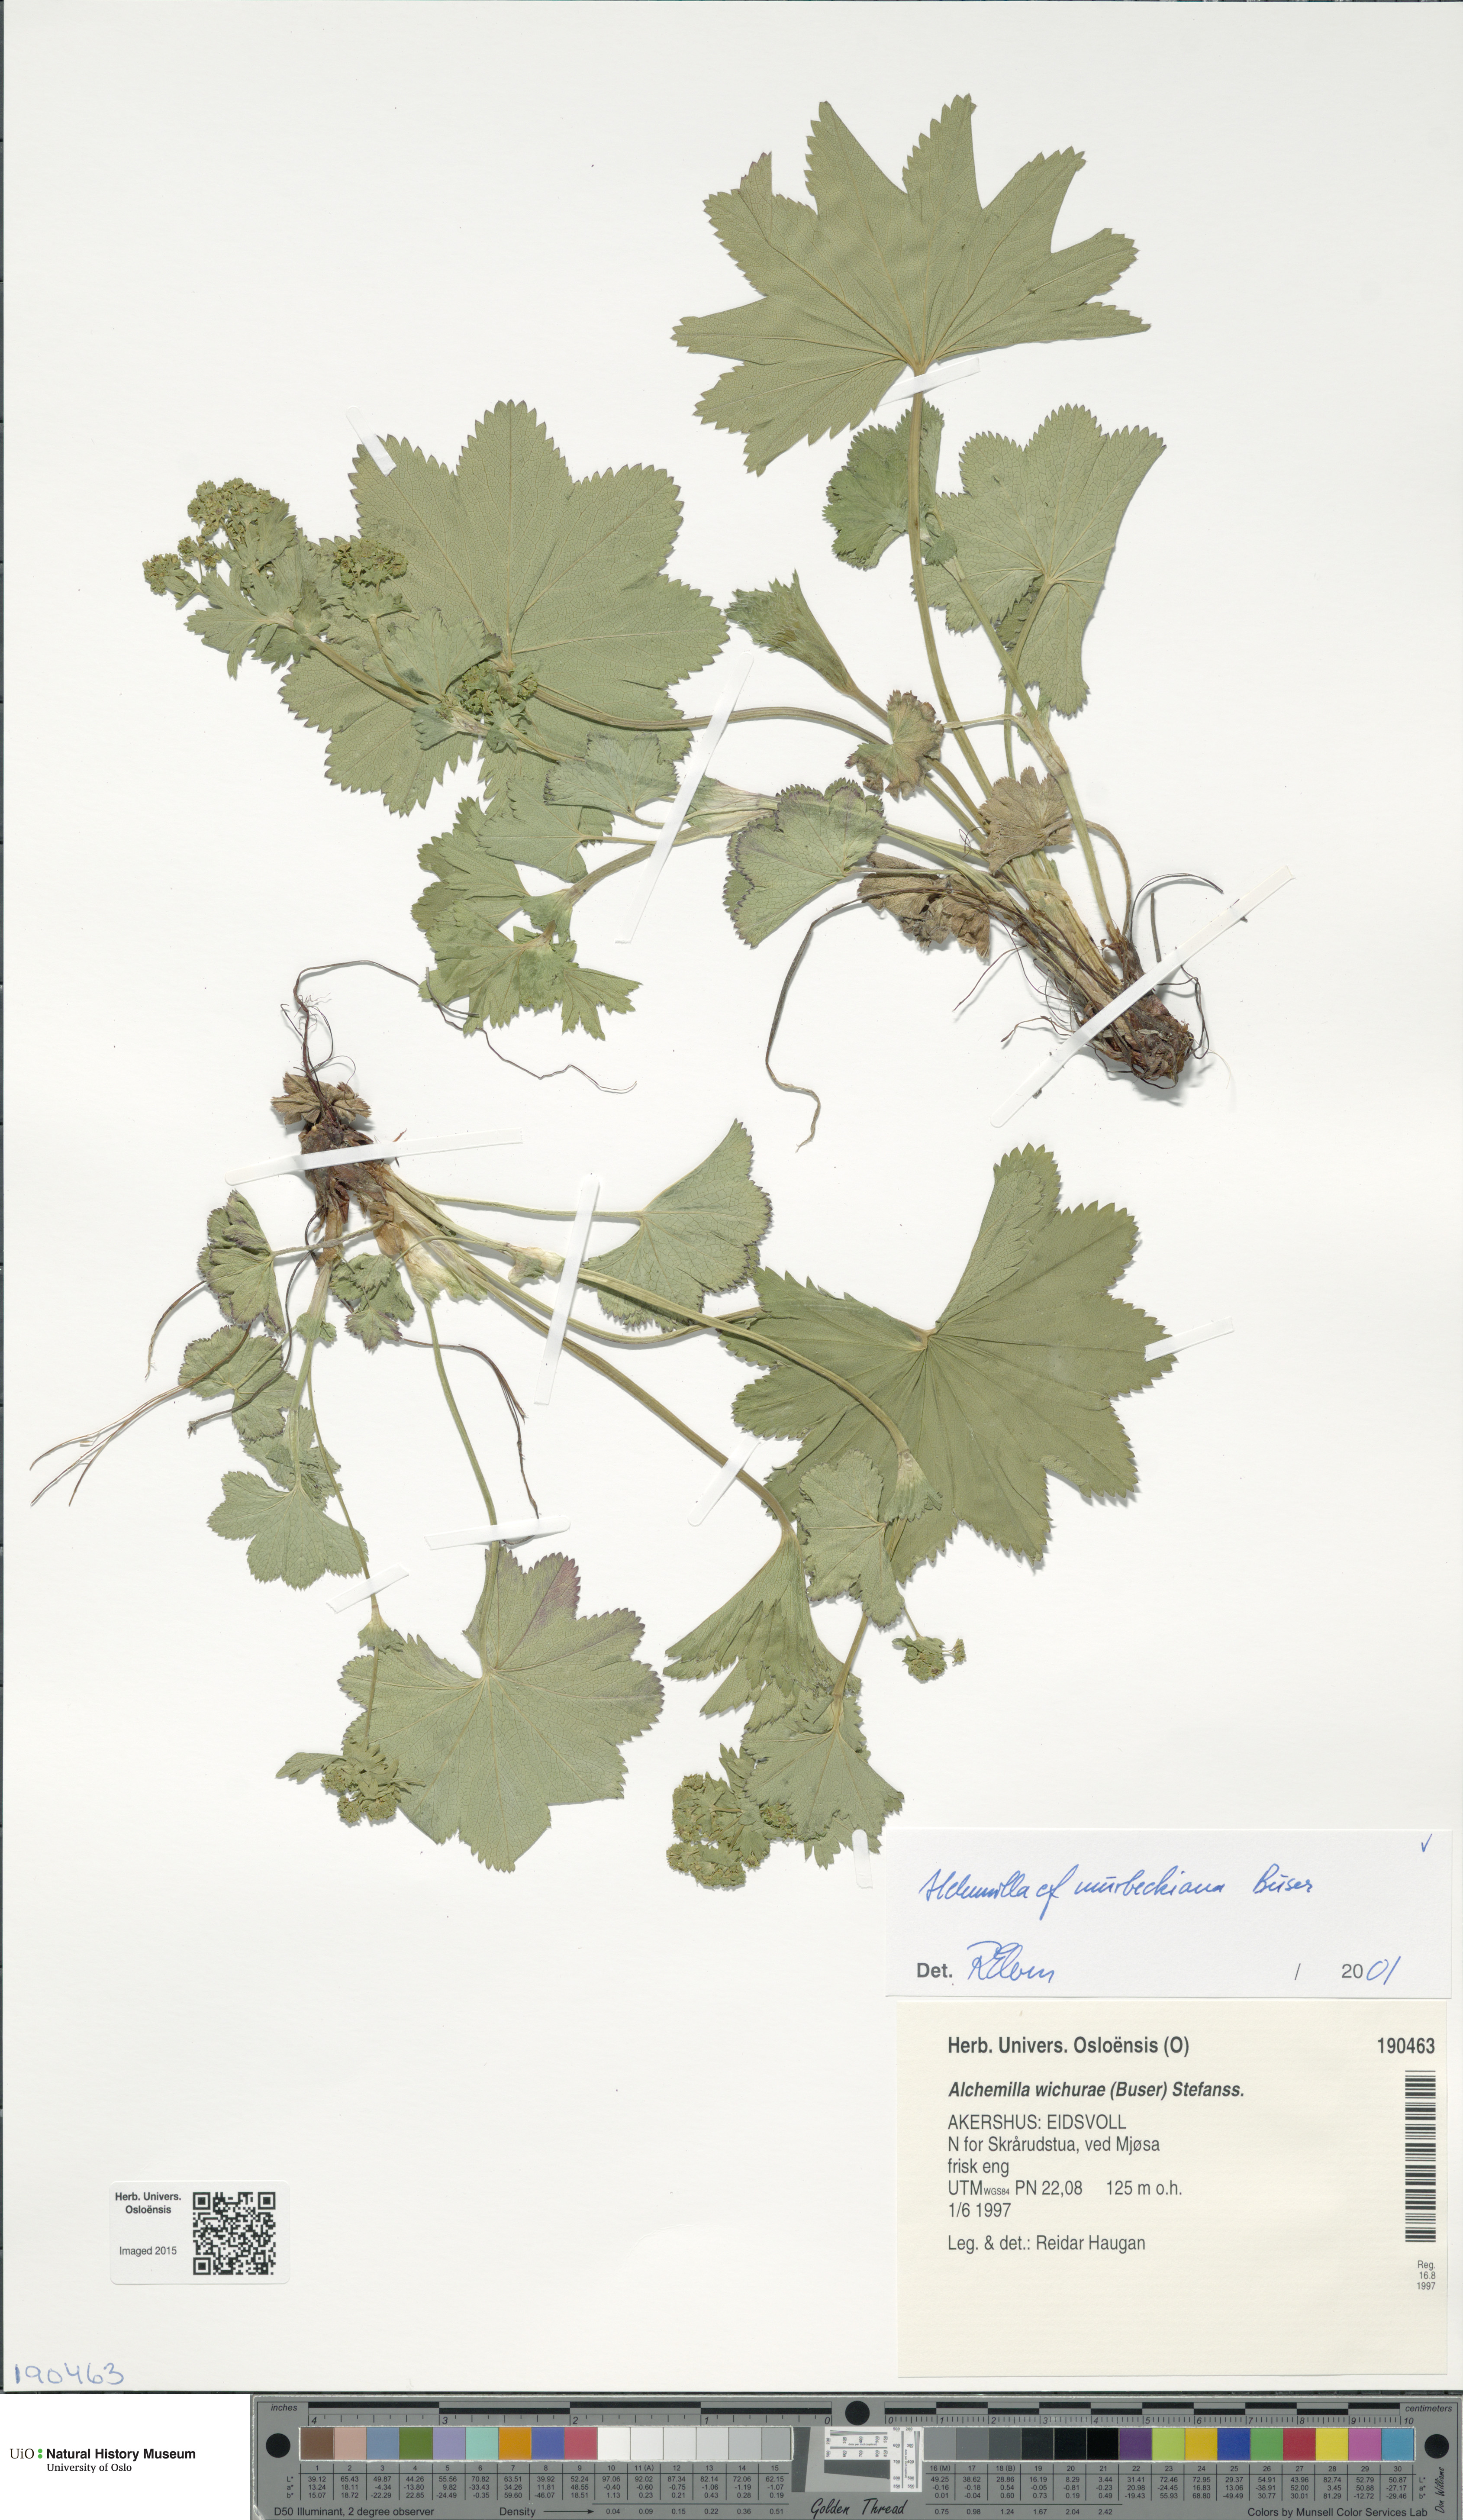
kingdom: Plantae
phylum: Tracheophyta
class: Magnoliopsida
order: Rosales
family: Rosaceae
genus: Alchemilla
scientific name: Alchemilla murbeckiana
